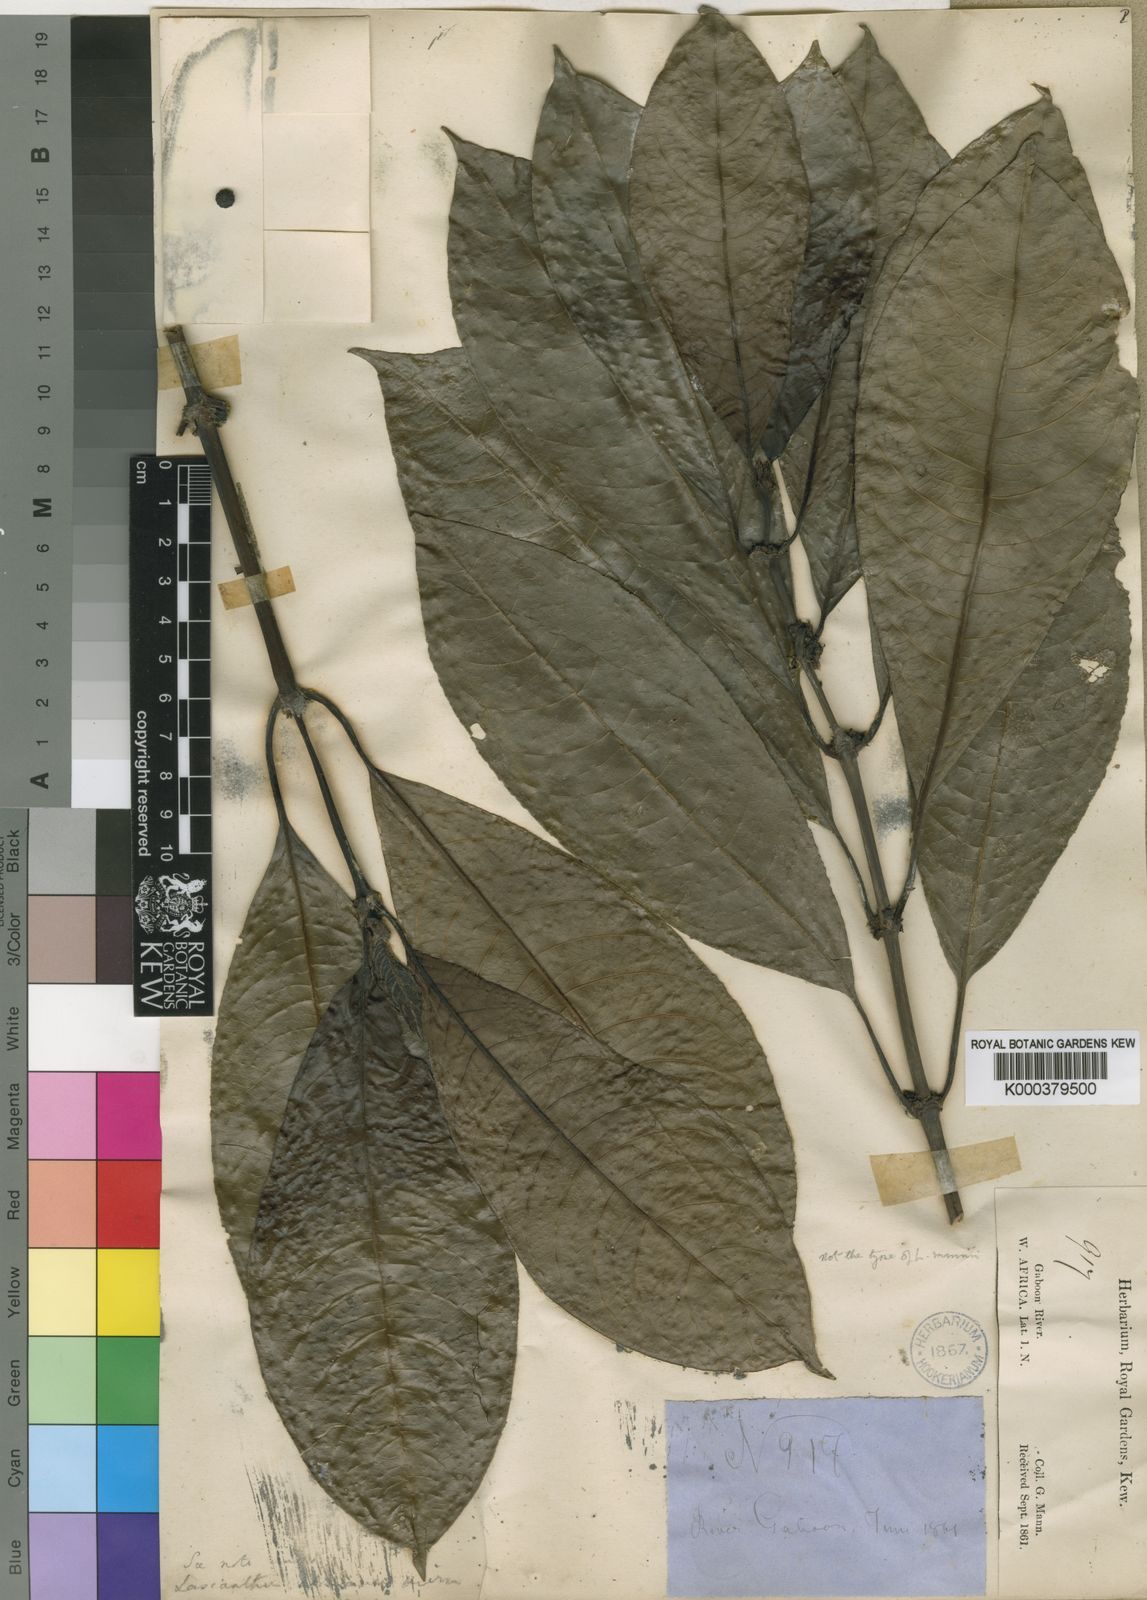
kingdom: Plantae
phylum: Tracheophyta
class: Magnoliopsida
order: Gentianales
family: Rubiaceae
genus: Lasianthus
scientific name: Lasianthus batangensis
